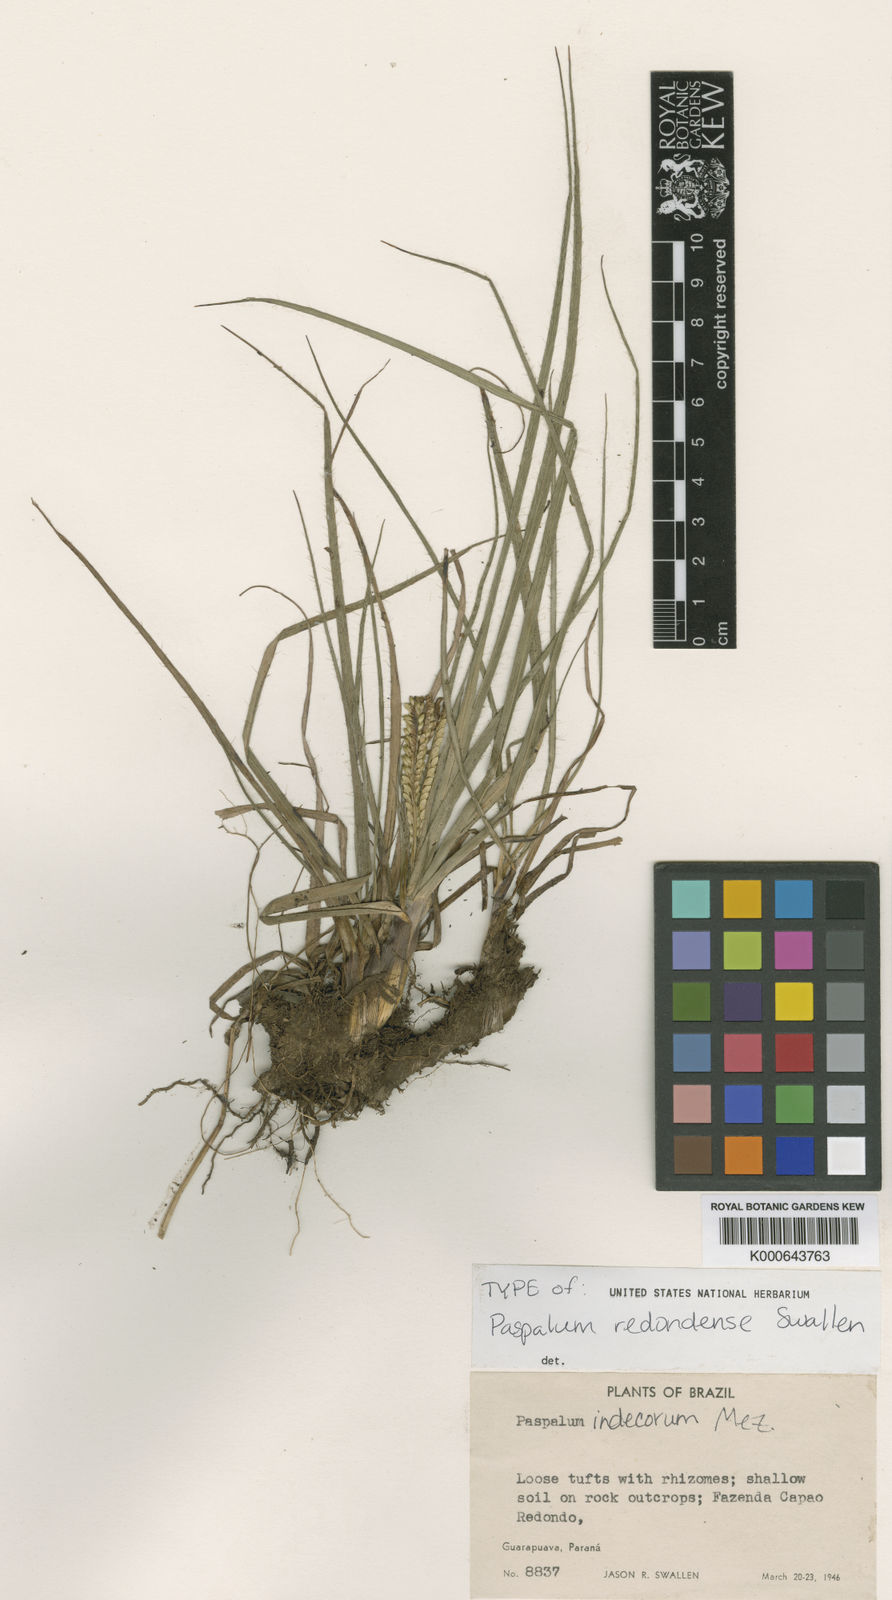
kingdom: Plantae
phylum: Tracheophyta
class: Liliopsida
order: Poales
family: Poaceae
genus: Paspalum
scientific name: Paspalum redondense
